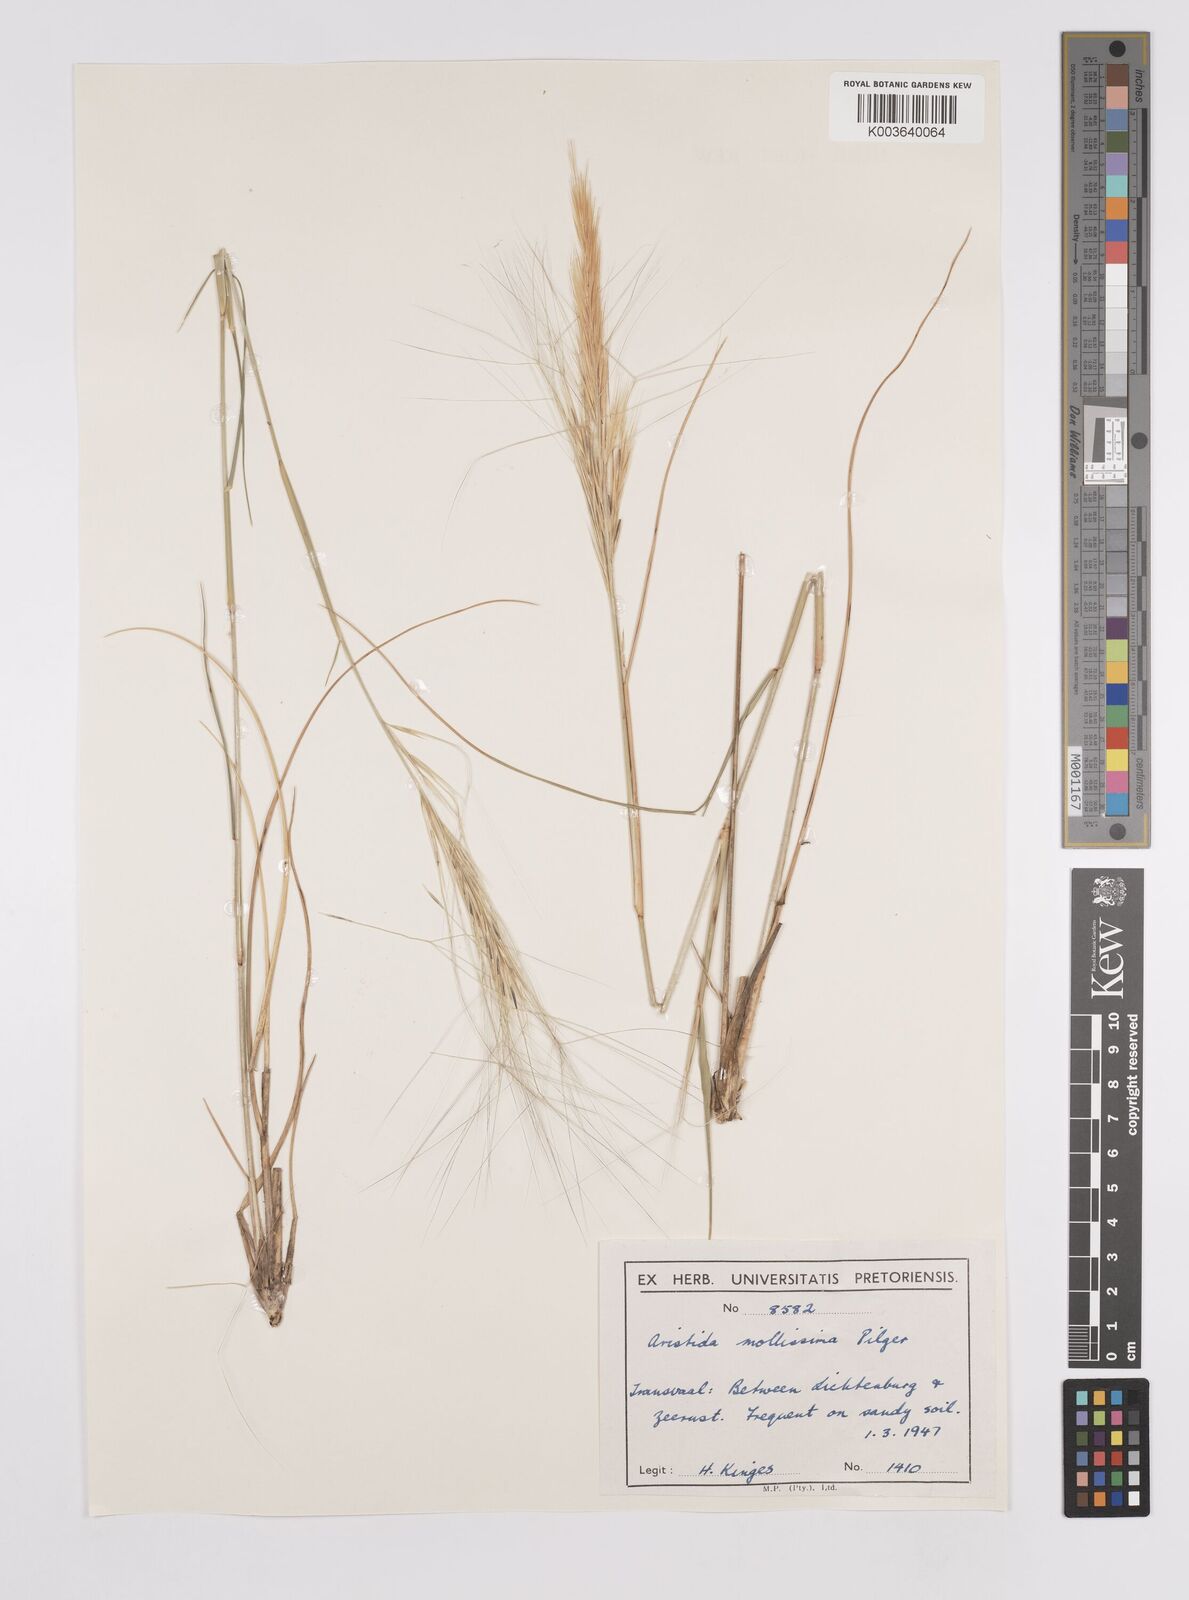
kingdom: Plantae
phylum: Tracheophyta
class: Liliopsida
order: Poales
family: Poaceae
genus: Aristida
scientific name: Aristida mollissima
